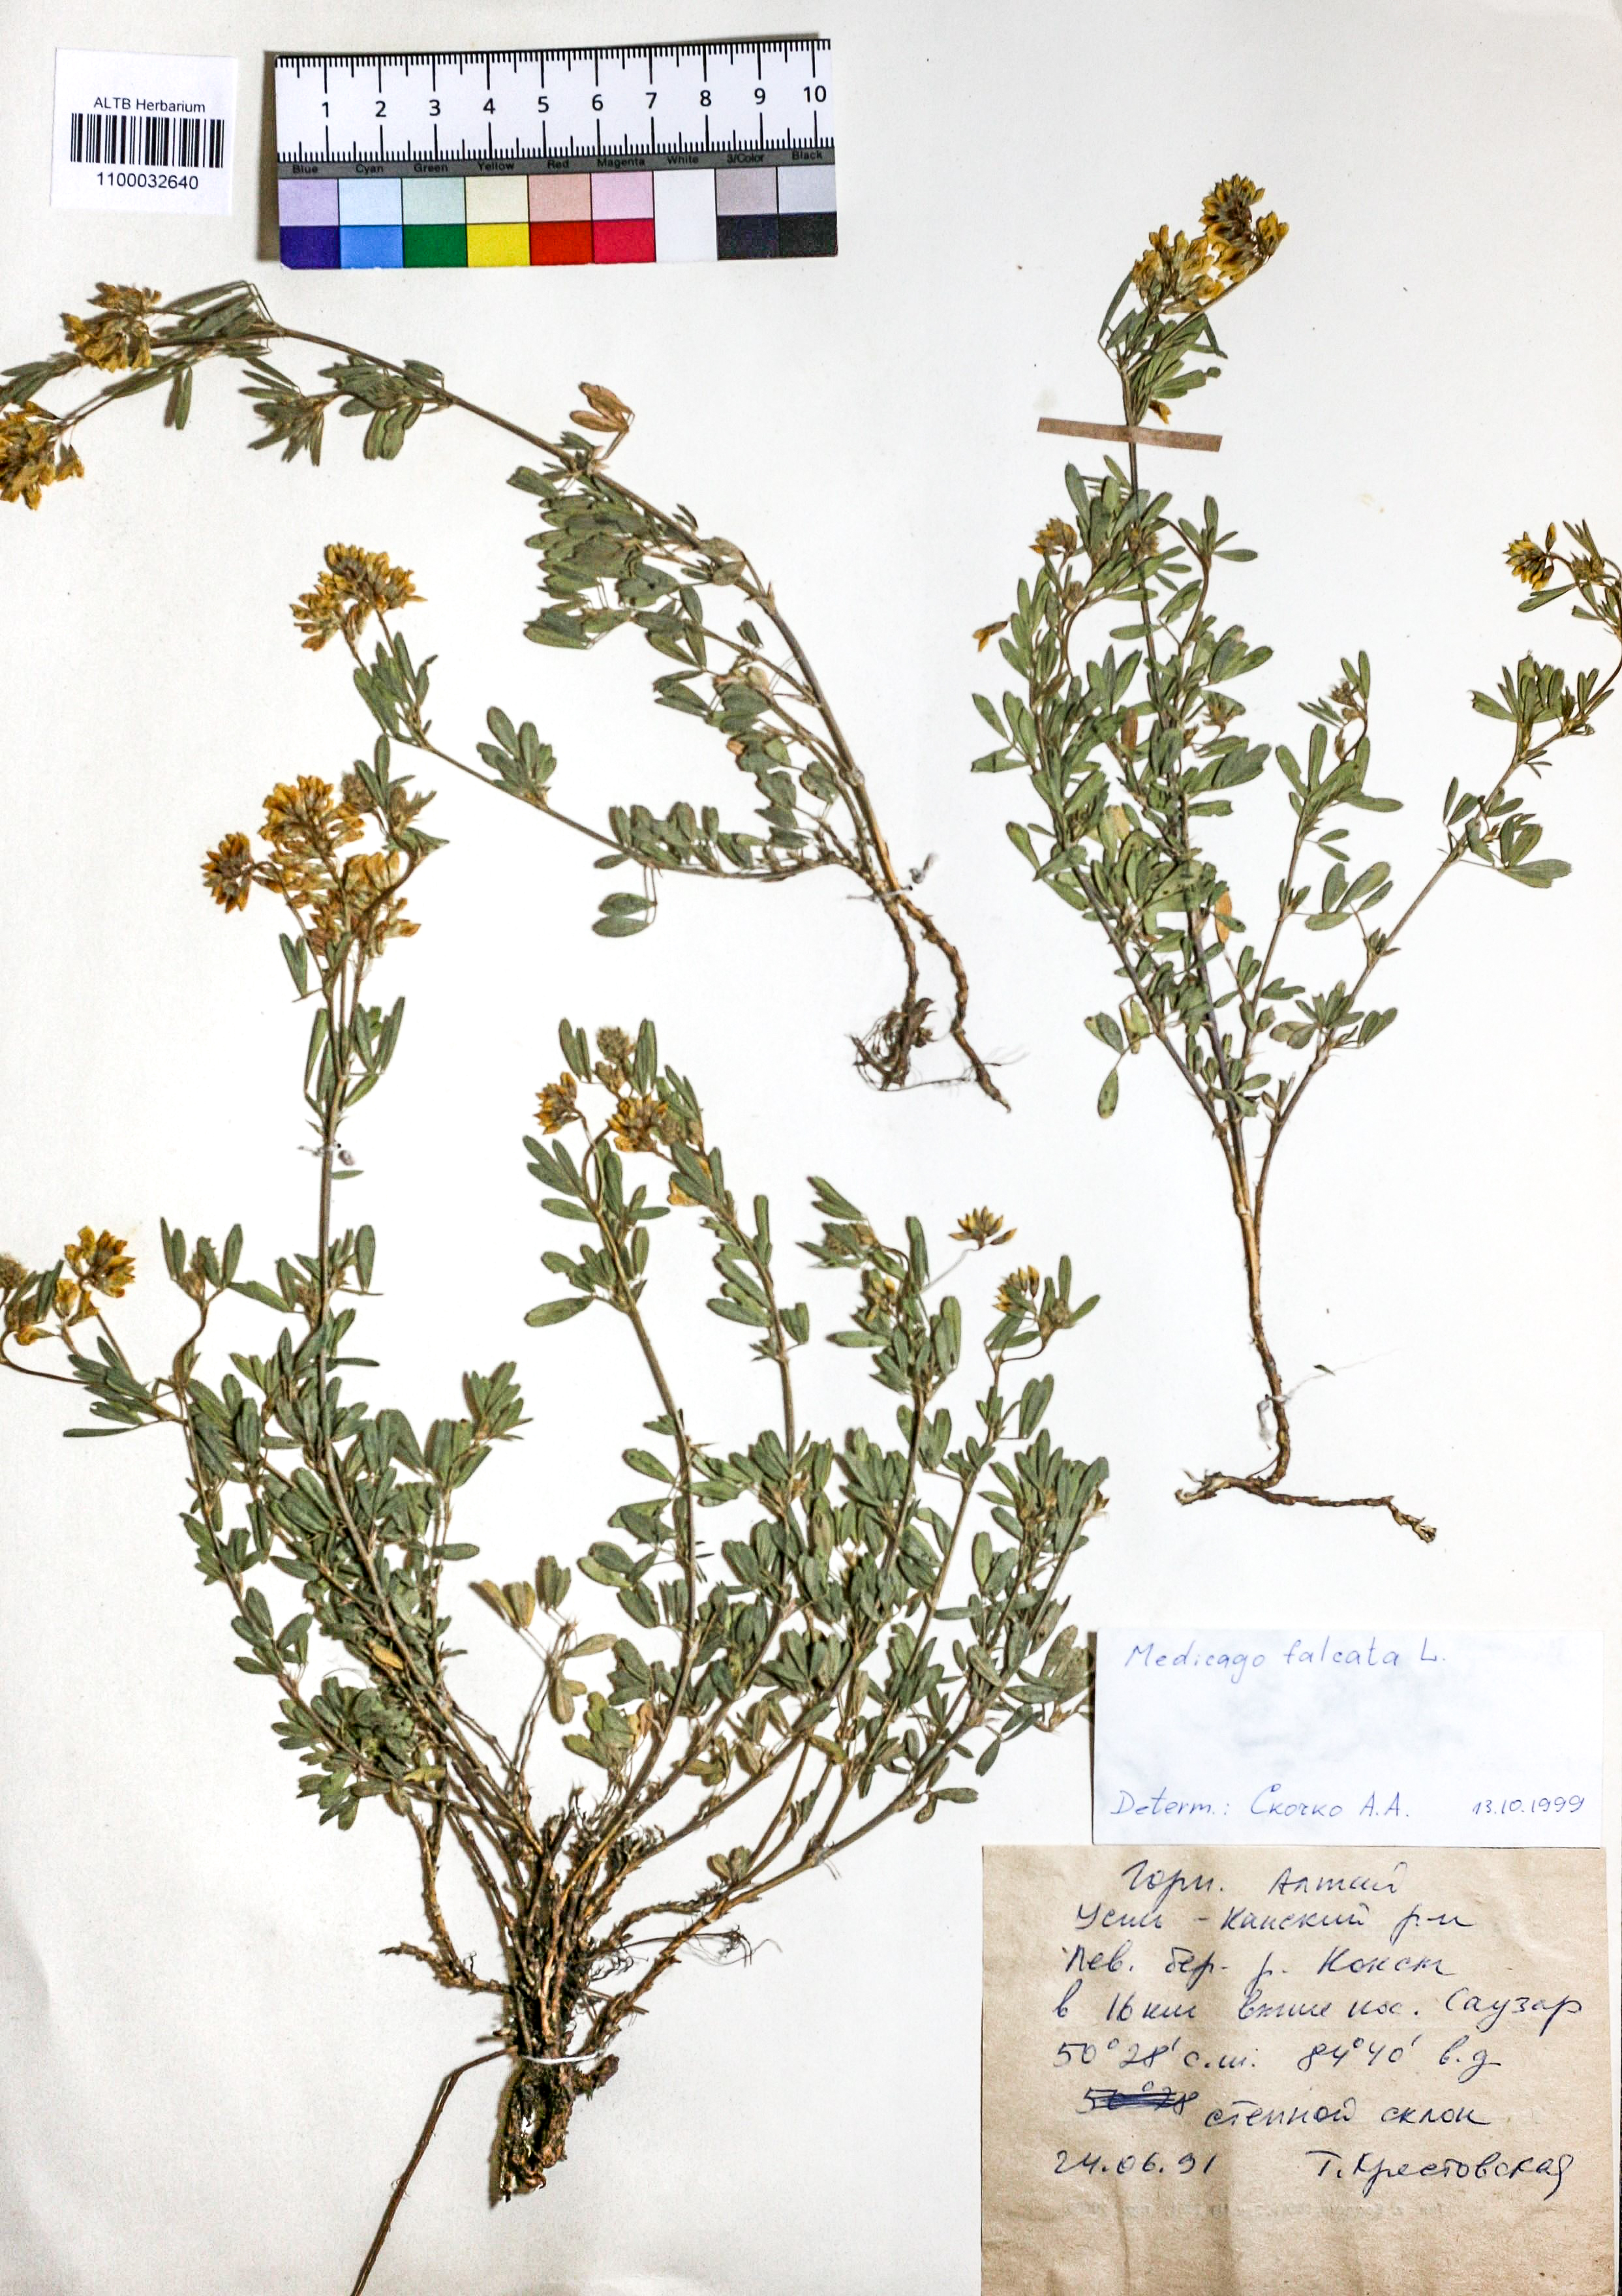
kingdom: Plantae
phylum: Tracheophyta
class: Magnoliopsida
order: Fabales
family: Fabaceae
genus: Medicago
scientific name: Medicago falcata
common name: Sickle medick
